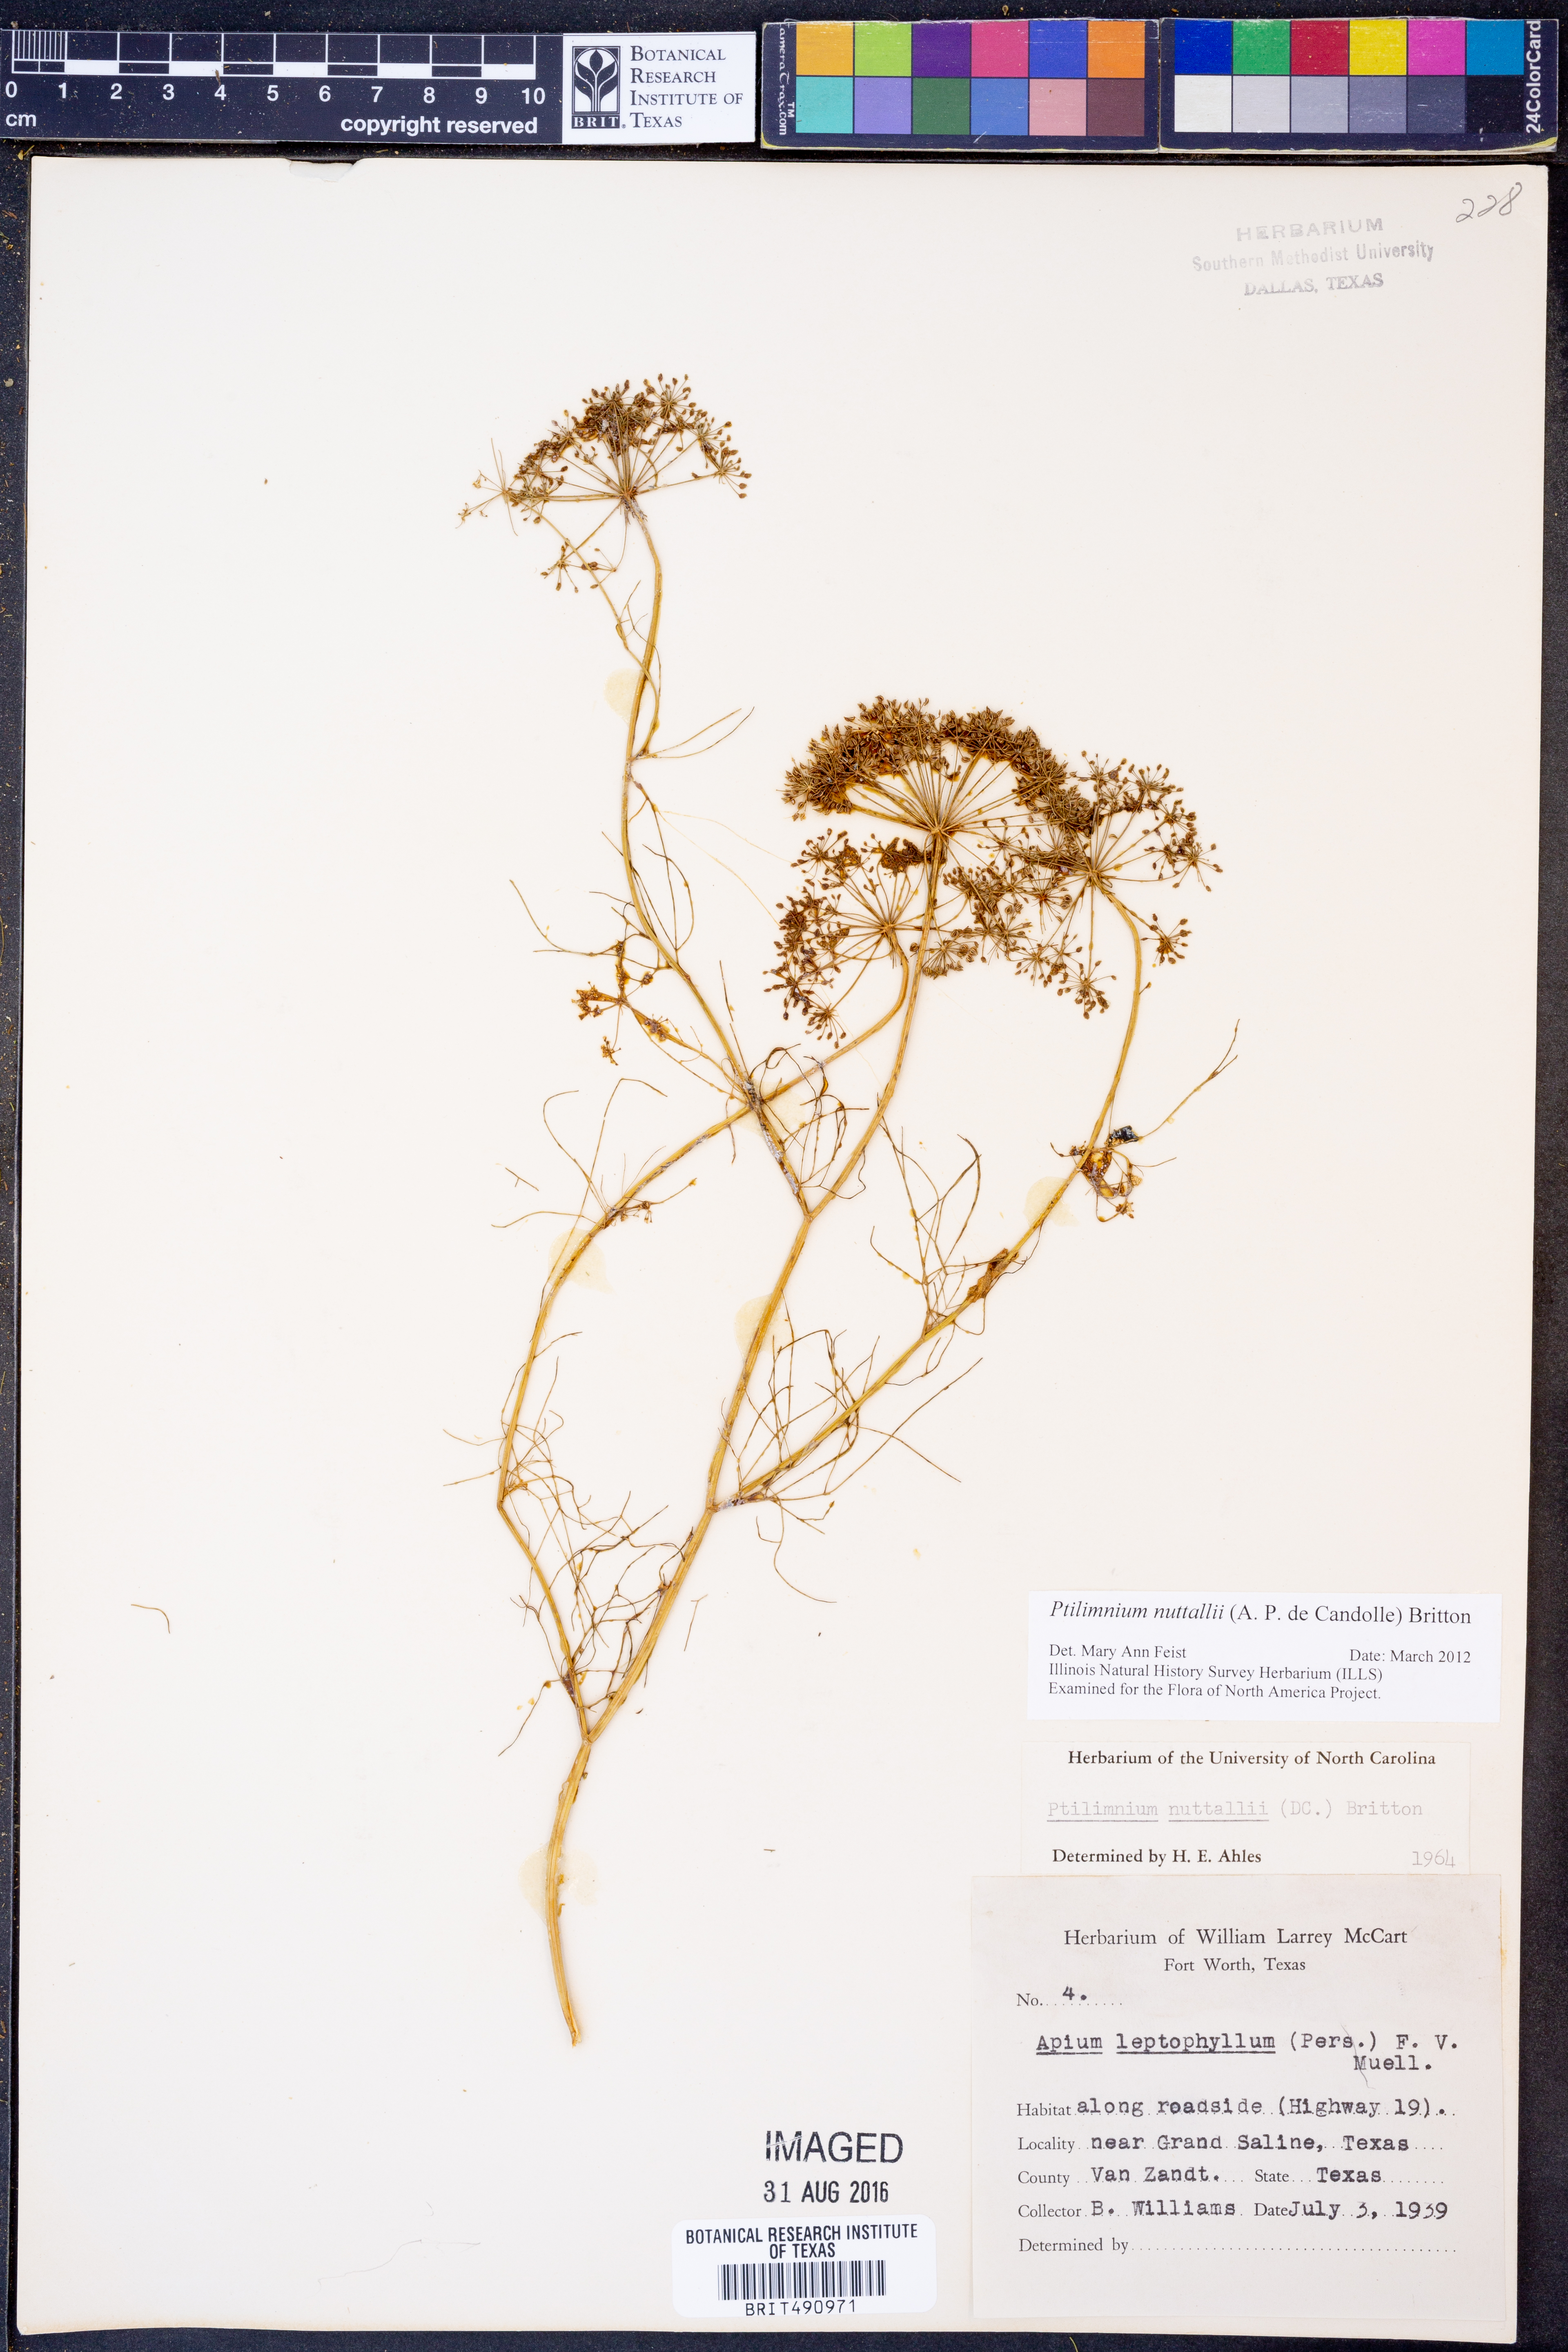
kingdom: Plantae
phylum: Tracheophyta
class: Magnoliopsida
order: Apiales
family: Apiaceae
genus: Ptilimnium
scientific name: Ptilimnium nuttallii
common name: Ozark bishop's-weed
